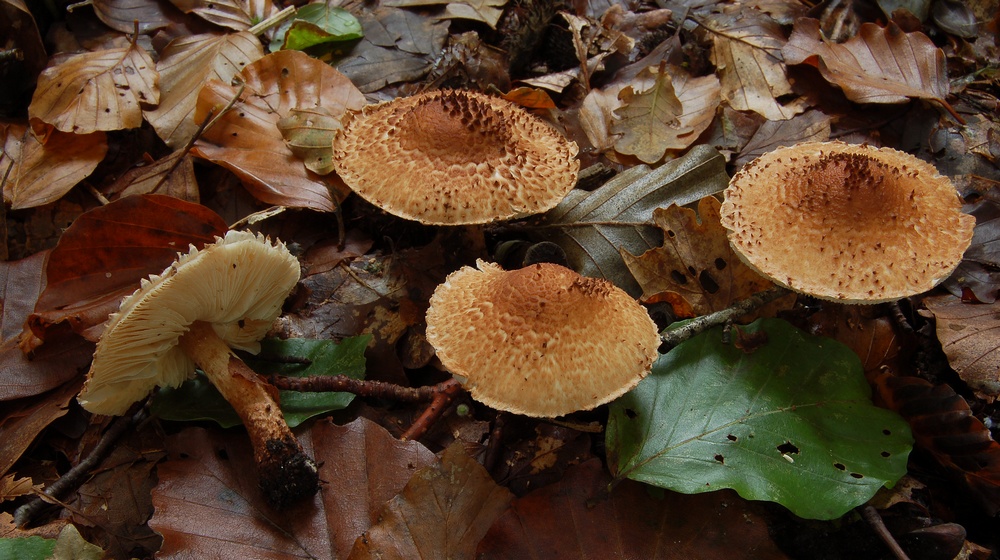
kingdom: Fungi
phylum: Basidiomycota
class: Agaricomycetes
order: Agaricales
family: Agaricaceae
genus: Echinoderma
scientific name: Echinoderma jacobi
